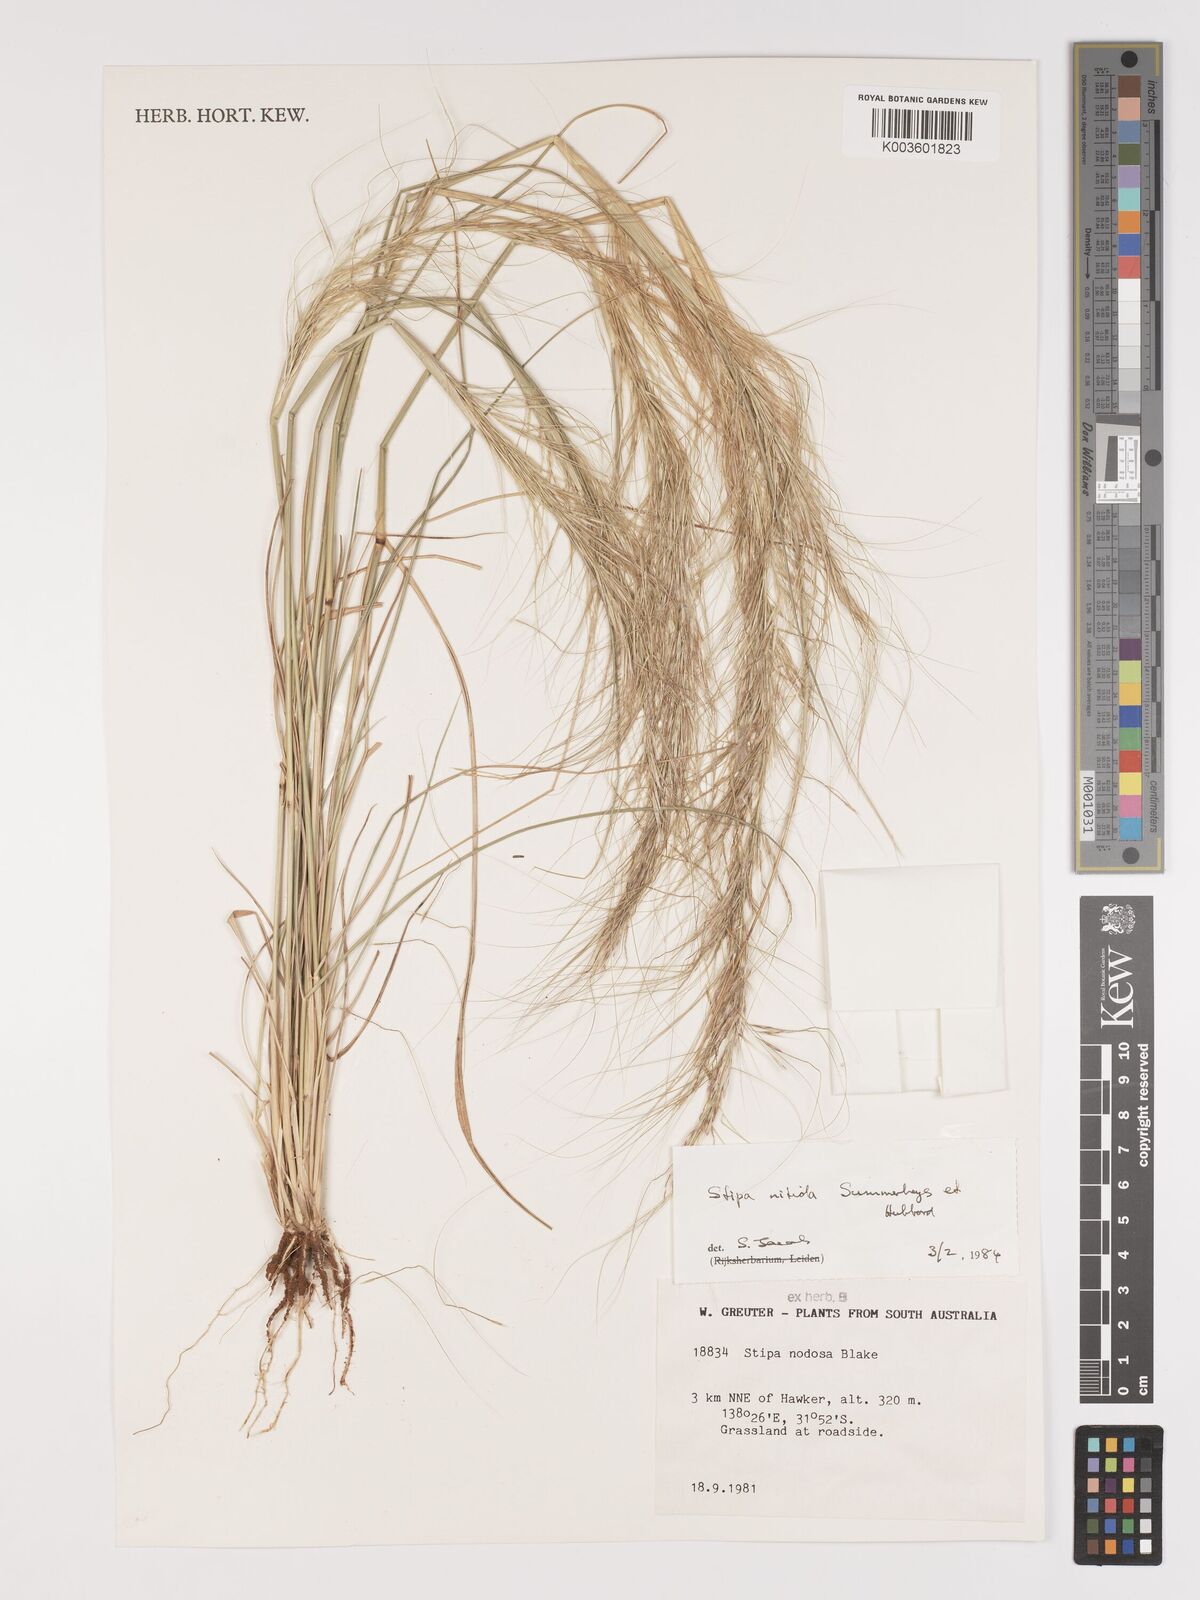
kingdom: Plantae
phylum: Tracheophyta
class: Liliopsida
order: Poales
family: Poaceae
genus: Austrostipa
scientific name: Austrostipa nitida
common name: Balcarra grass
